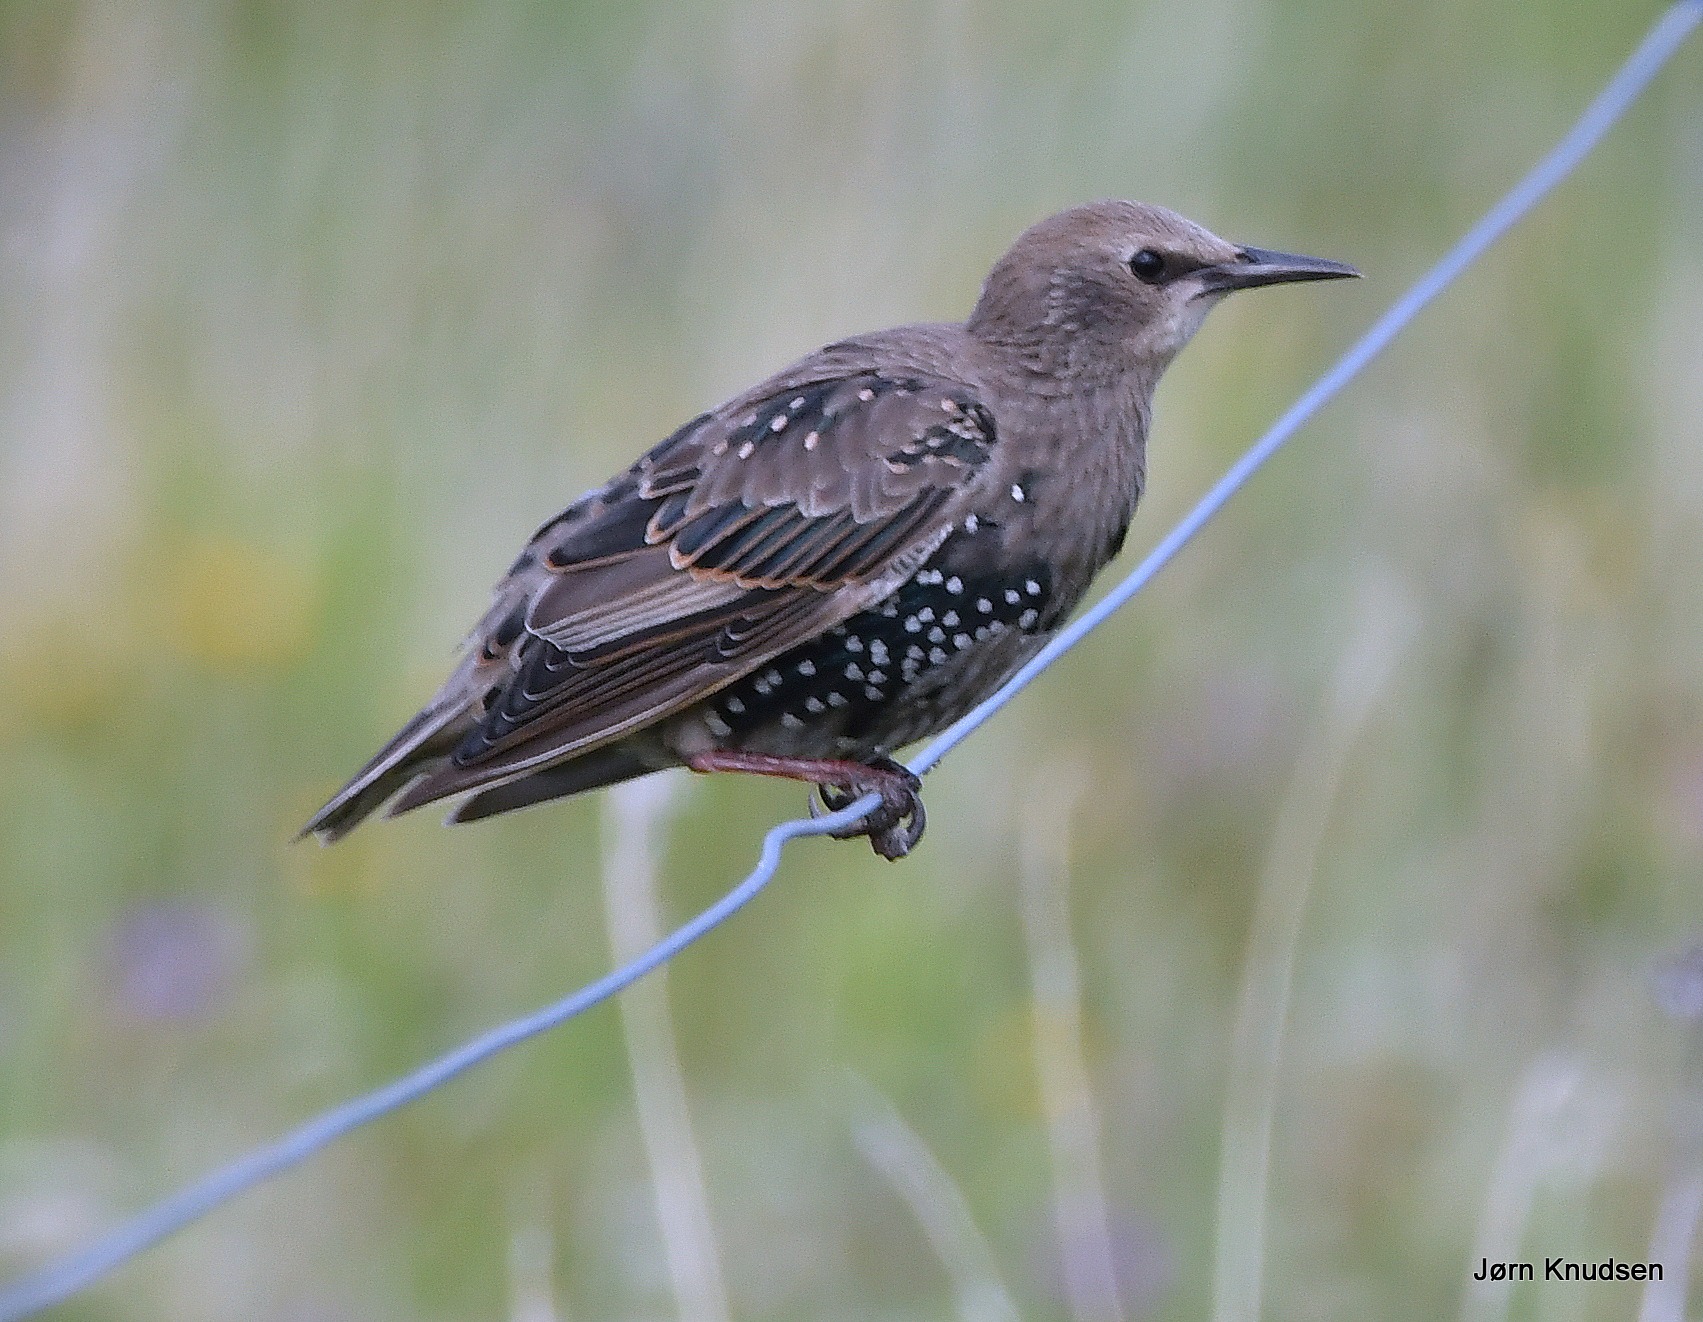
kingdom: Animalia
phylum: Chordata
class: Aves
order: Passeriformes
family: Sturnidae
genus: Sturnus
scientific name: Sturnus vulgaris
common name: Stær
